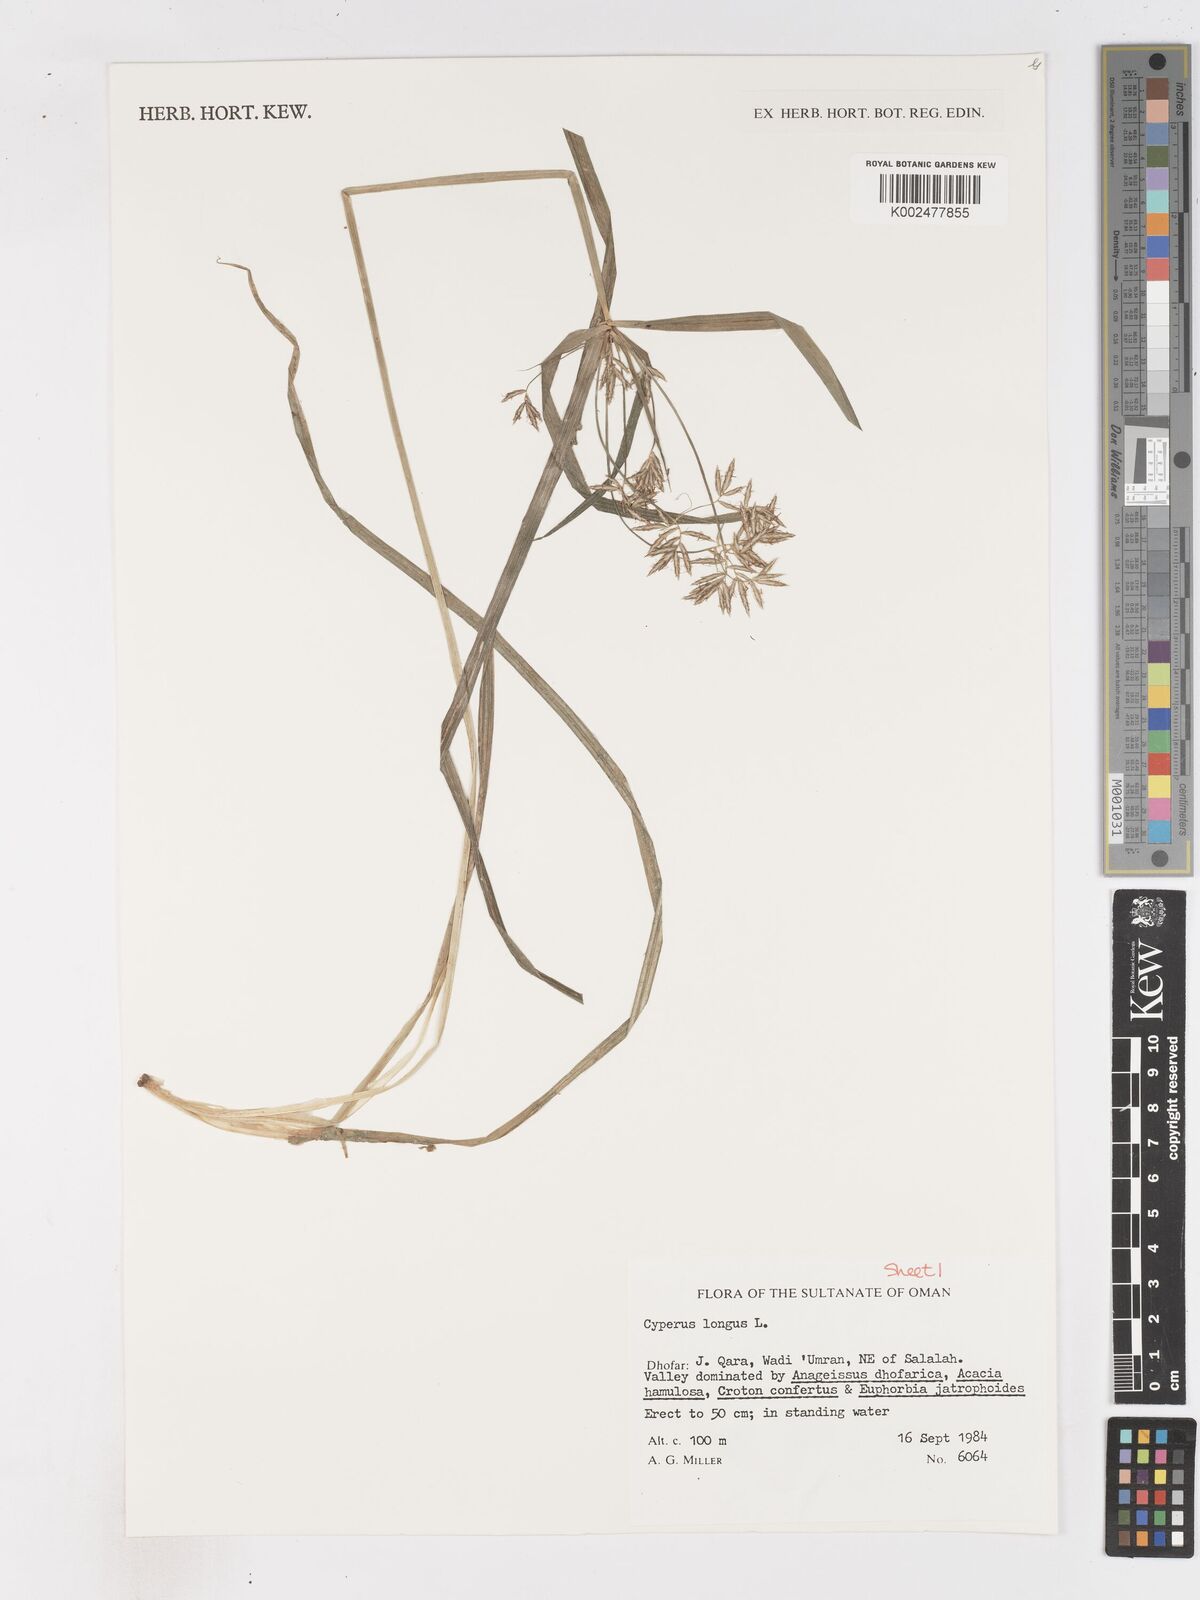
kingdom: Plantae
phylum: Tracheophyta
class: Liliopsida
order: Poales
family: Cyperaceae
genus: Cyperus
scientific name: Cyperus longus
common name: Galingale
